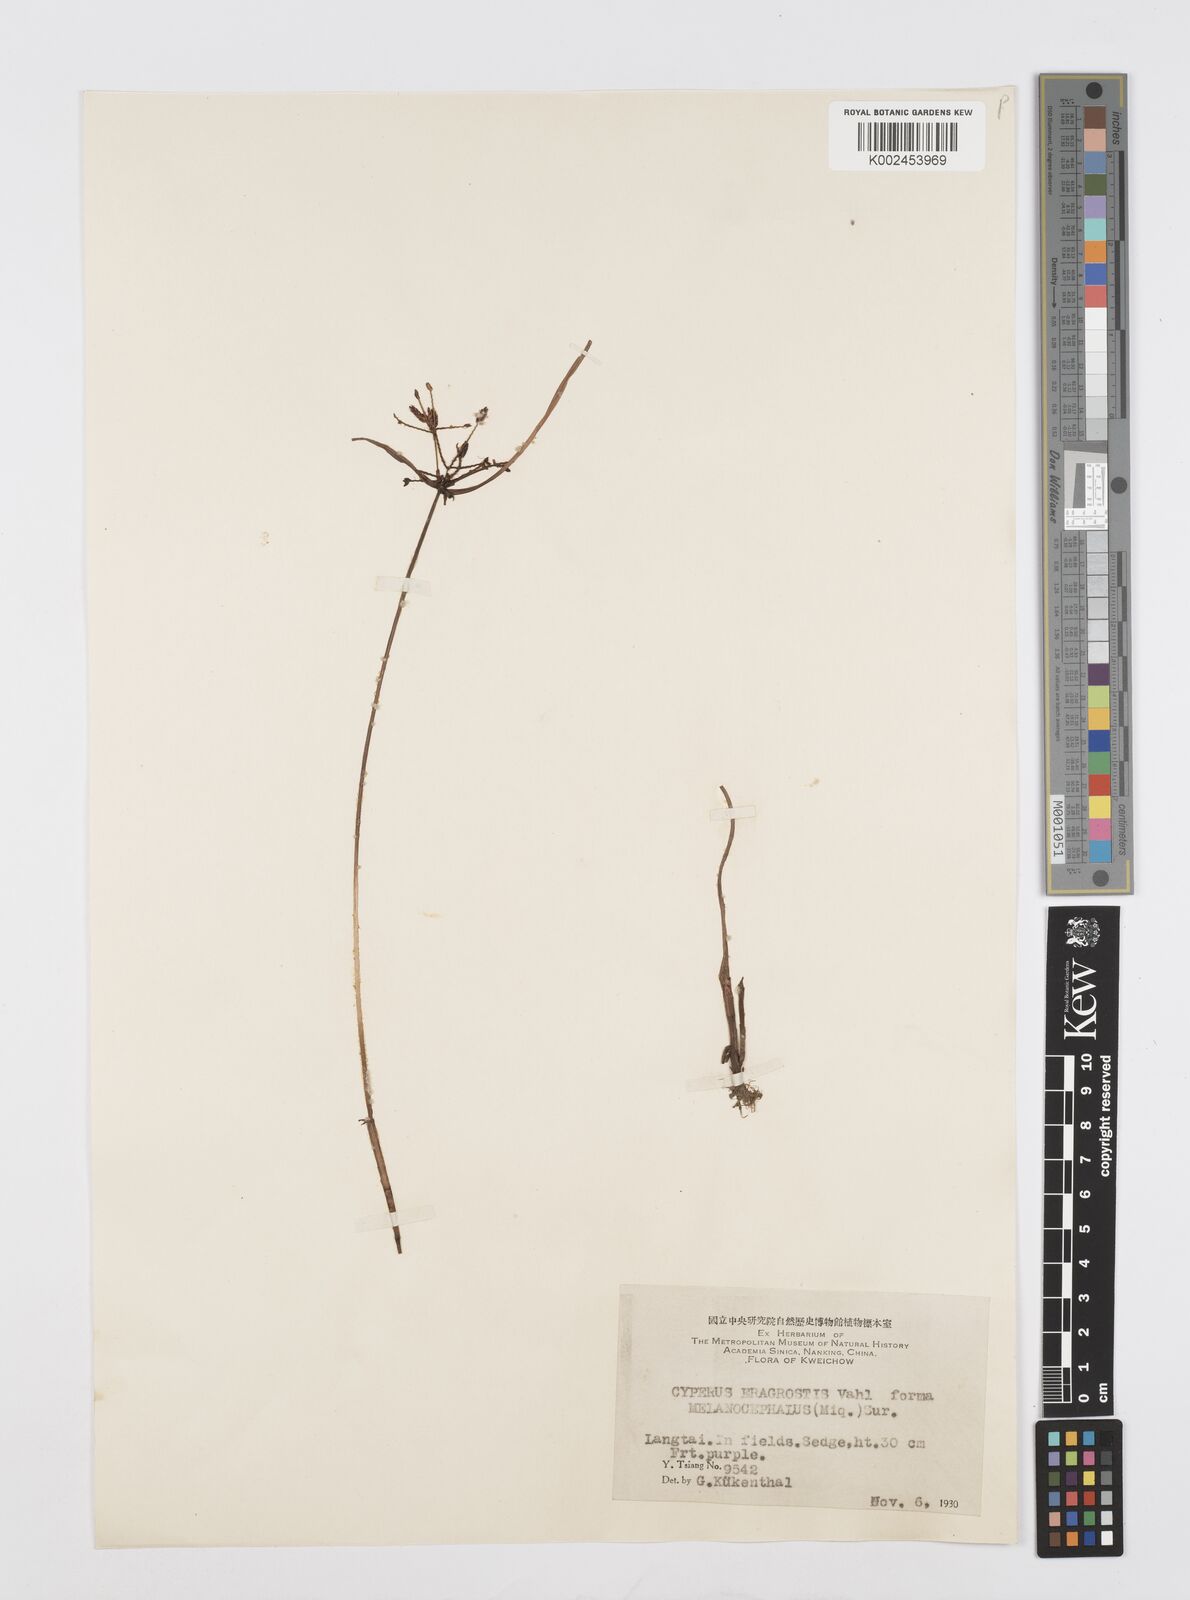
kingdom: Plantae
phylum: Tracheophyta
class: Liliopsida
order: Poales
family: Cyperaceae
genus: Cyperus
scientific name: Cyperus sanguinolentus
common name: Purpleglume flatsedge
